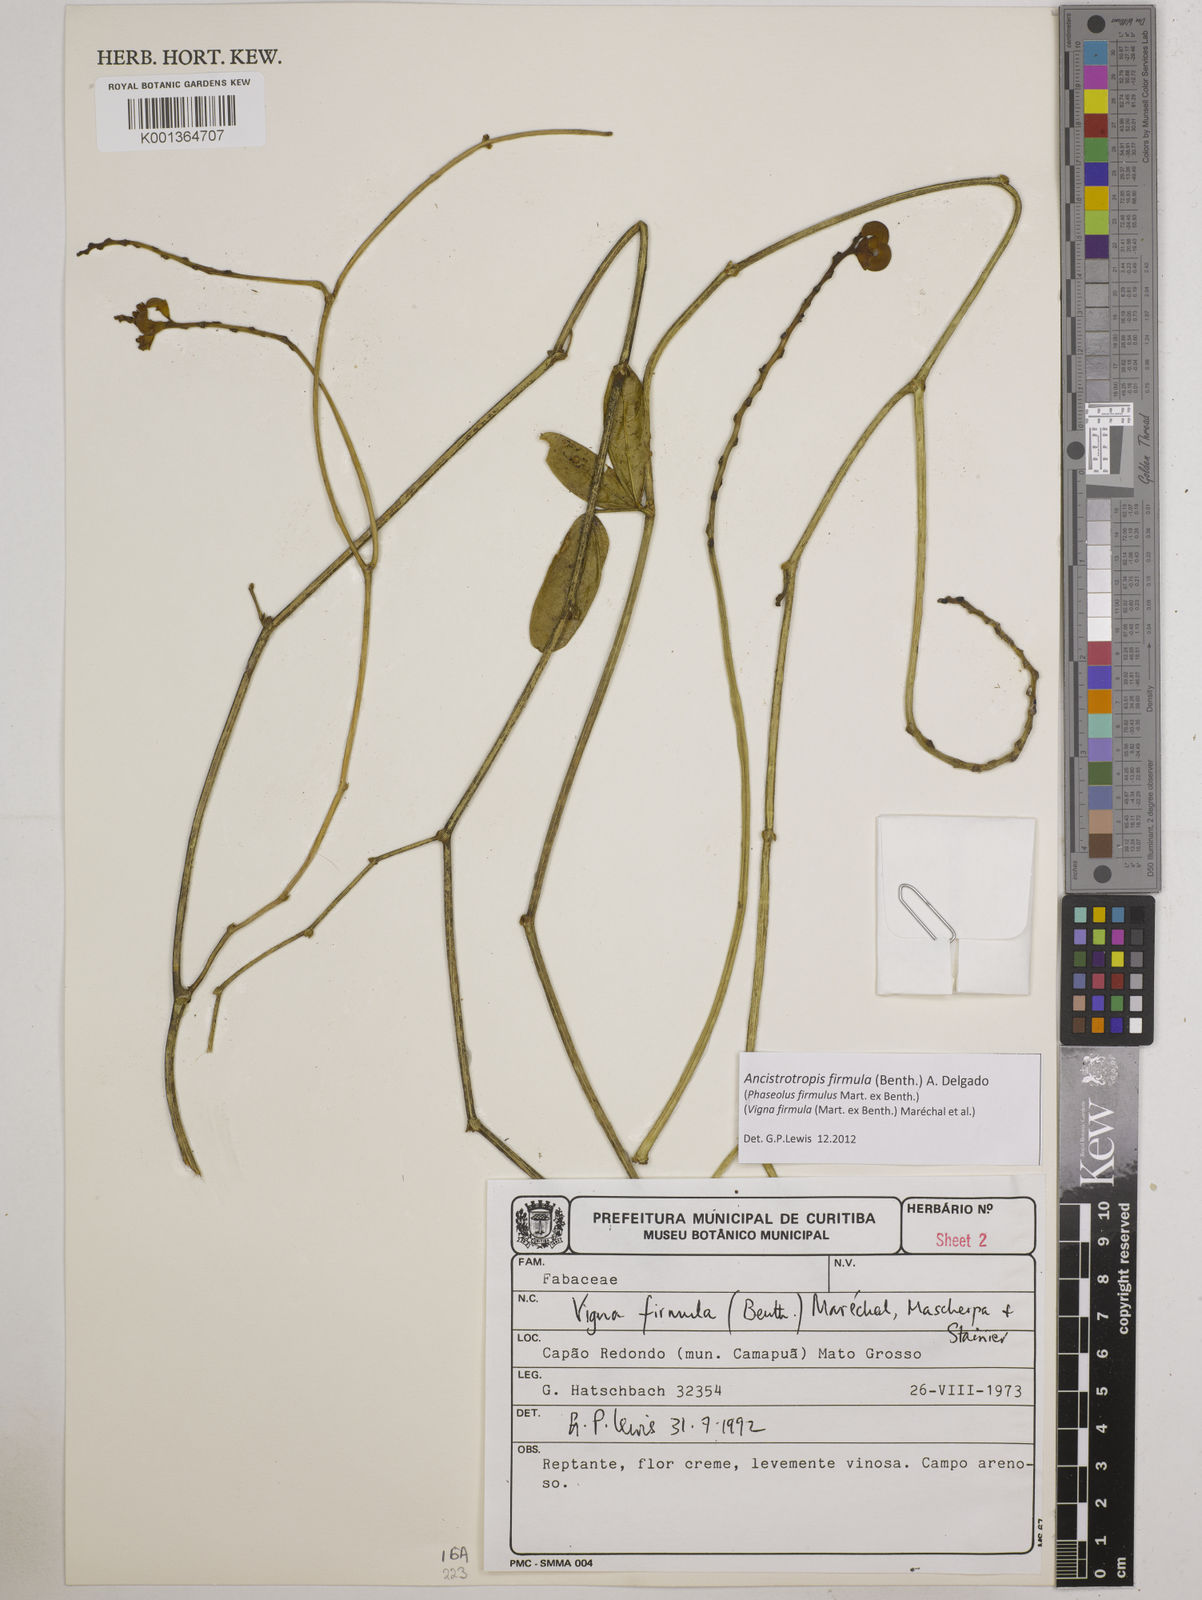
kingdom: Plantae
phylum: Tracheophyta
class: Magnoliopsida
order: Fabales
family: Fabaceae
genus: Ancistrotropis
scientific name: Ancistrotropis firmula
